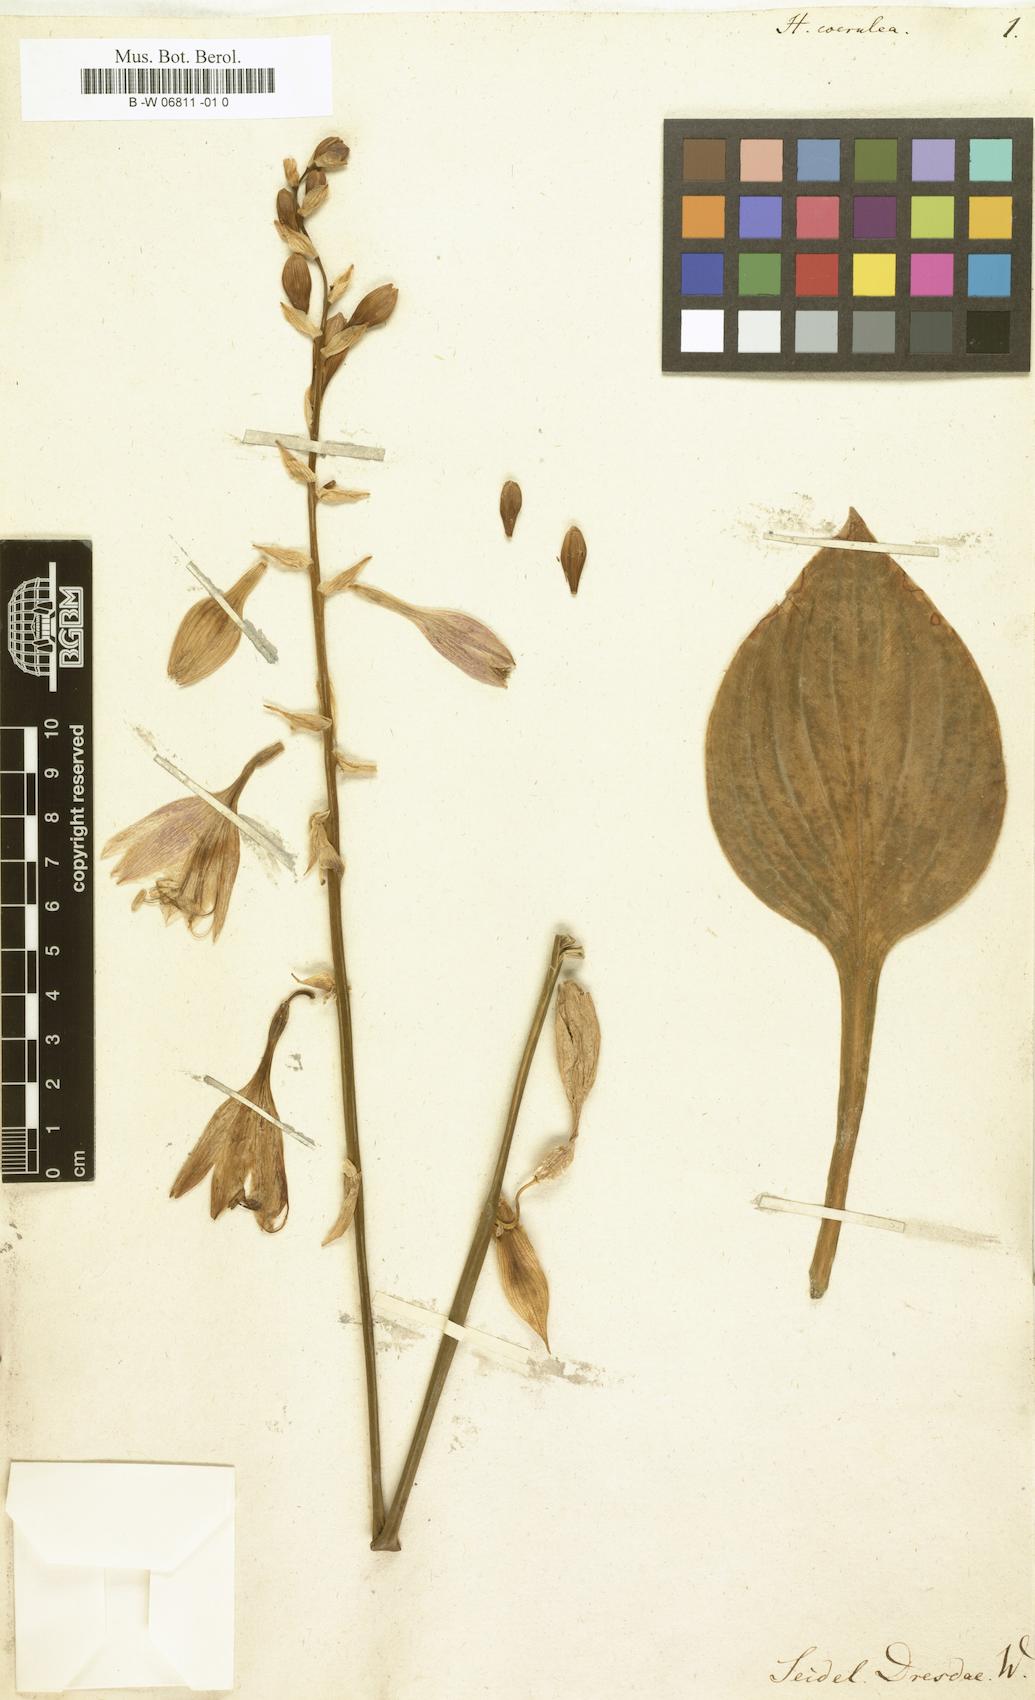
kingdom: Plantae
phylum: Tracheophyta
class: Liliopsida
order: Asparagales
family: Asparagaceae
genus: Hosta
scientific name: Hosta ventricosa
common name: Blue plantain-lily
